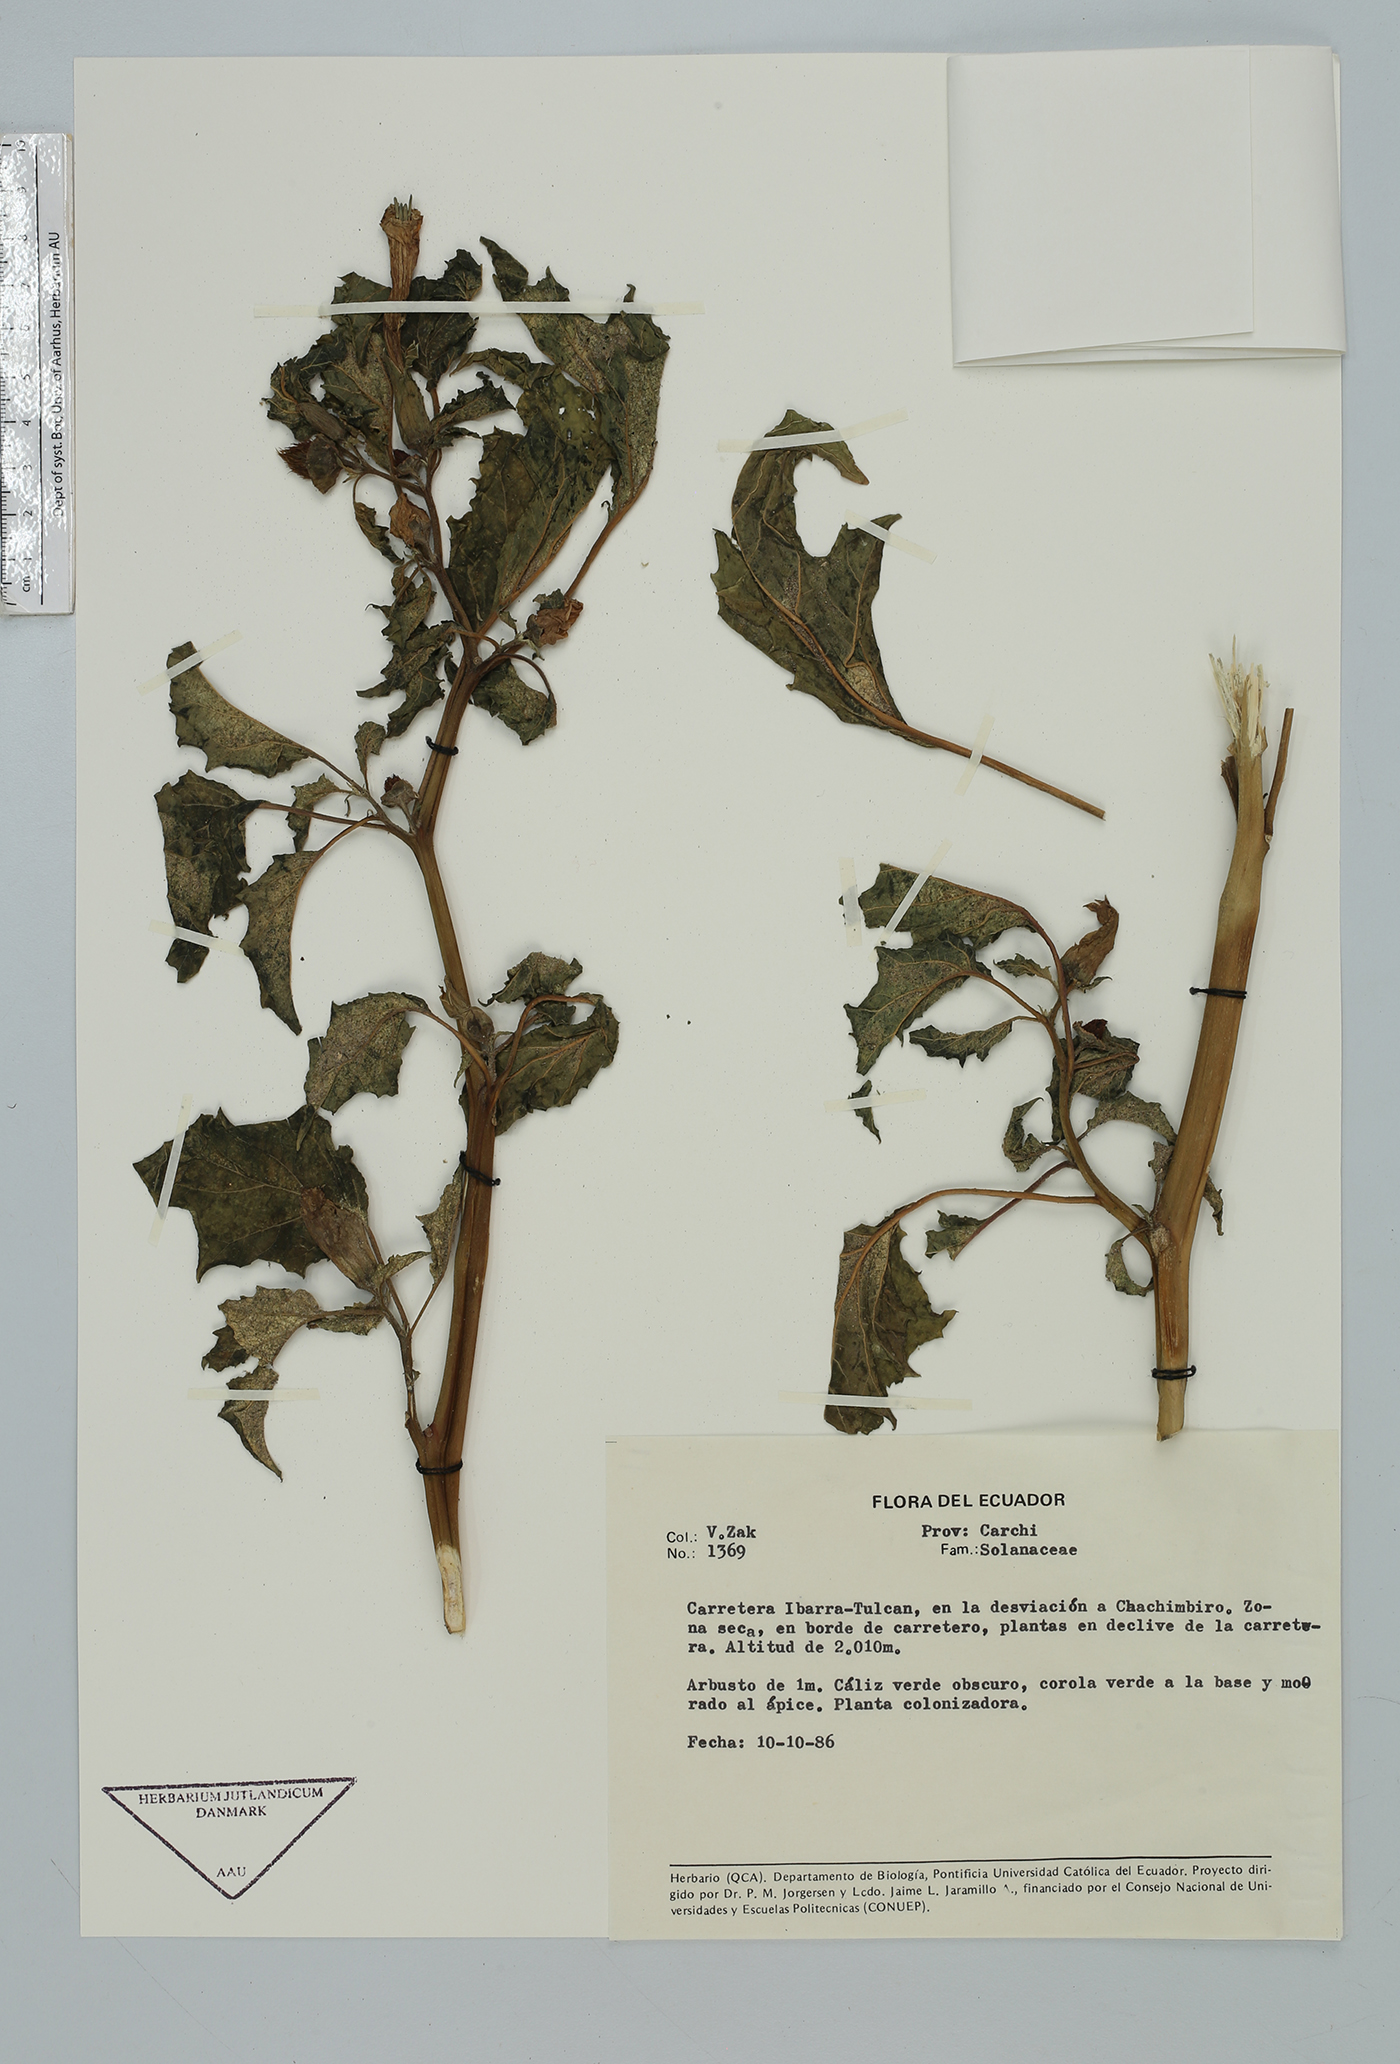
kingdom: Plantae
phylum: Tracheophyta
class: Magnoliopsida
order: Solanales
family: Solanaceae
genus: Datura
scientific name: Datura
